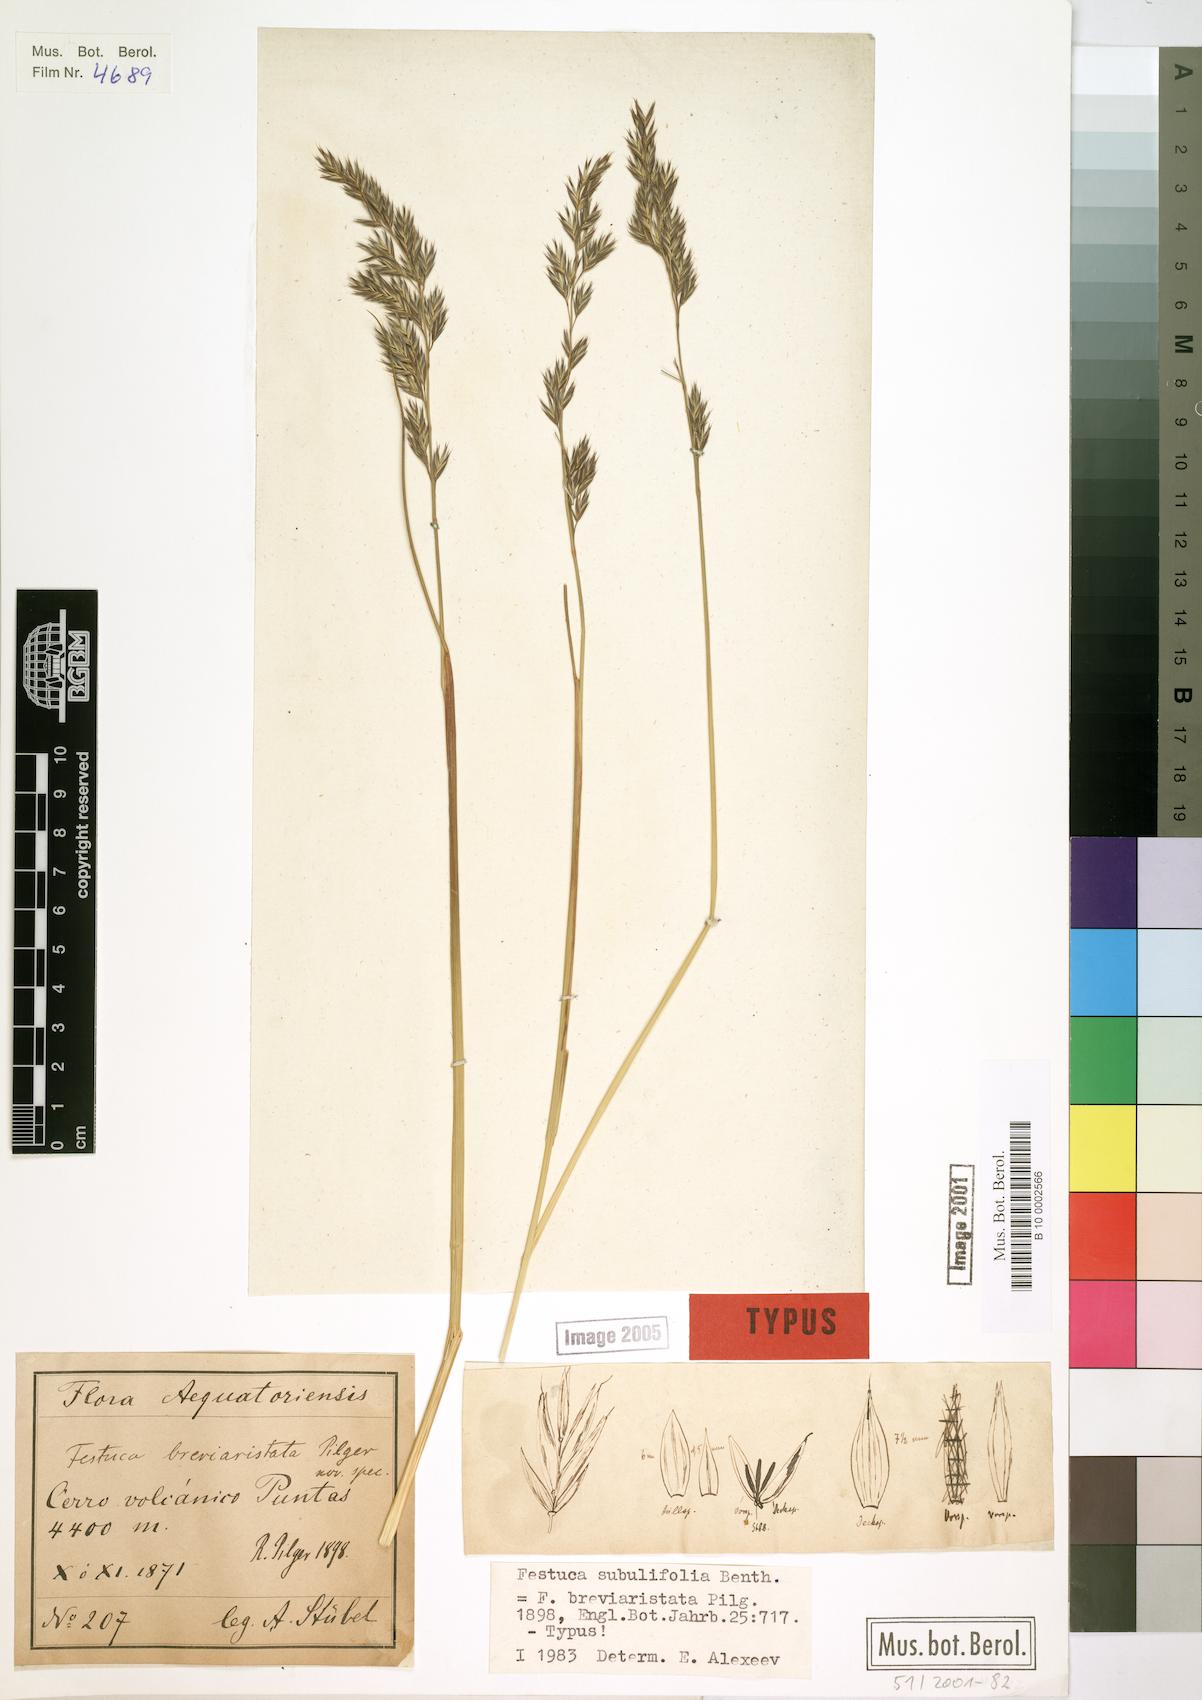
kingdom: Plantae
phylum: Tracheophyta
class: Liliopsida
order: Poales
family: Poaceae
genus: Festuca
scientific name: Festuca subulifolia
